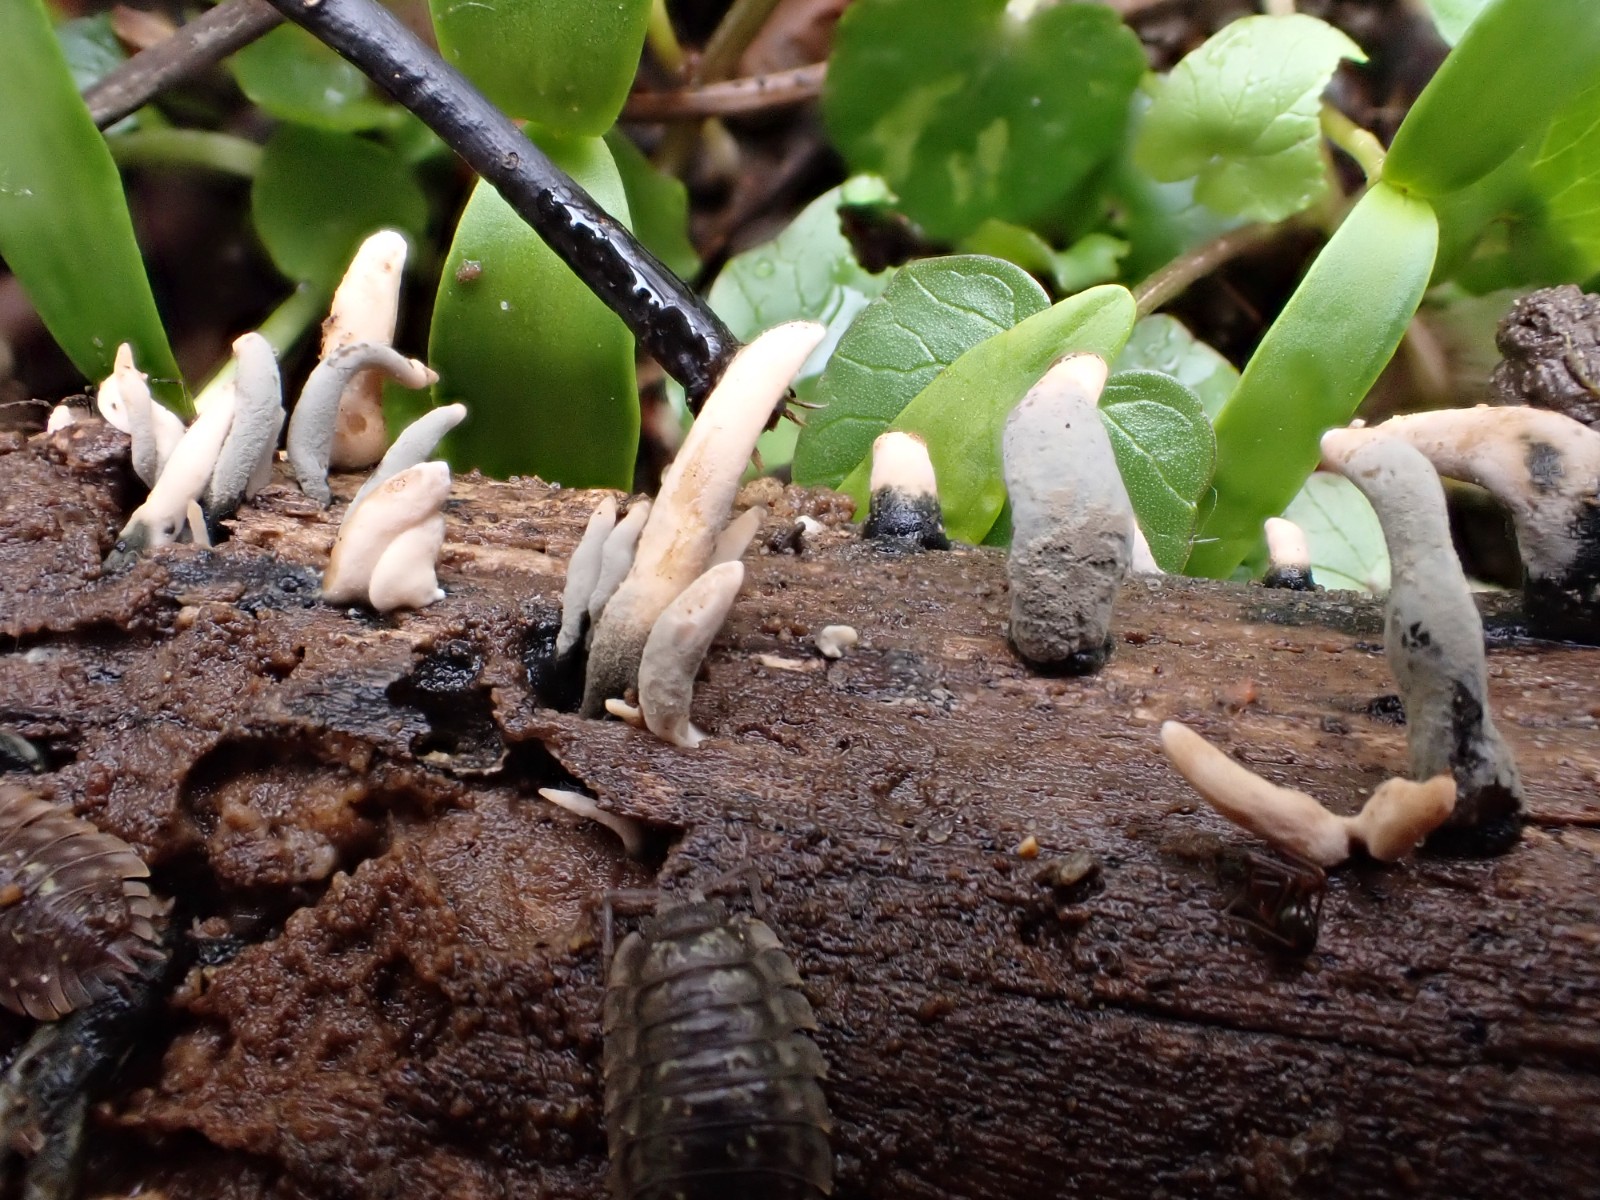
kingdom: Fungi
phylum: Ascomycota
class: Sordariomycetes
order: Xylariales
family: Xylariaceae
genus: Xylaria
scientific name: Xylaria longipes
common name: slank stødsvamp
